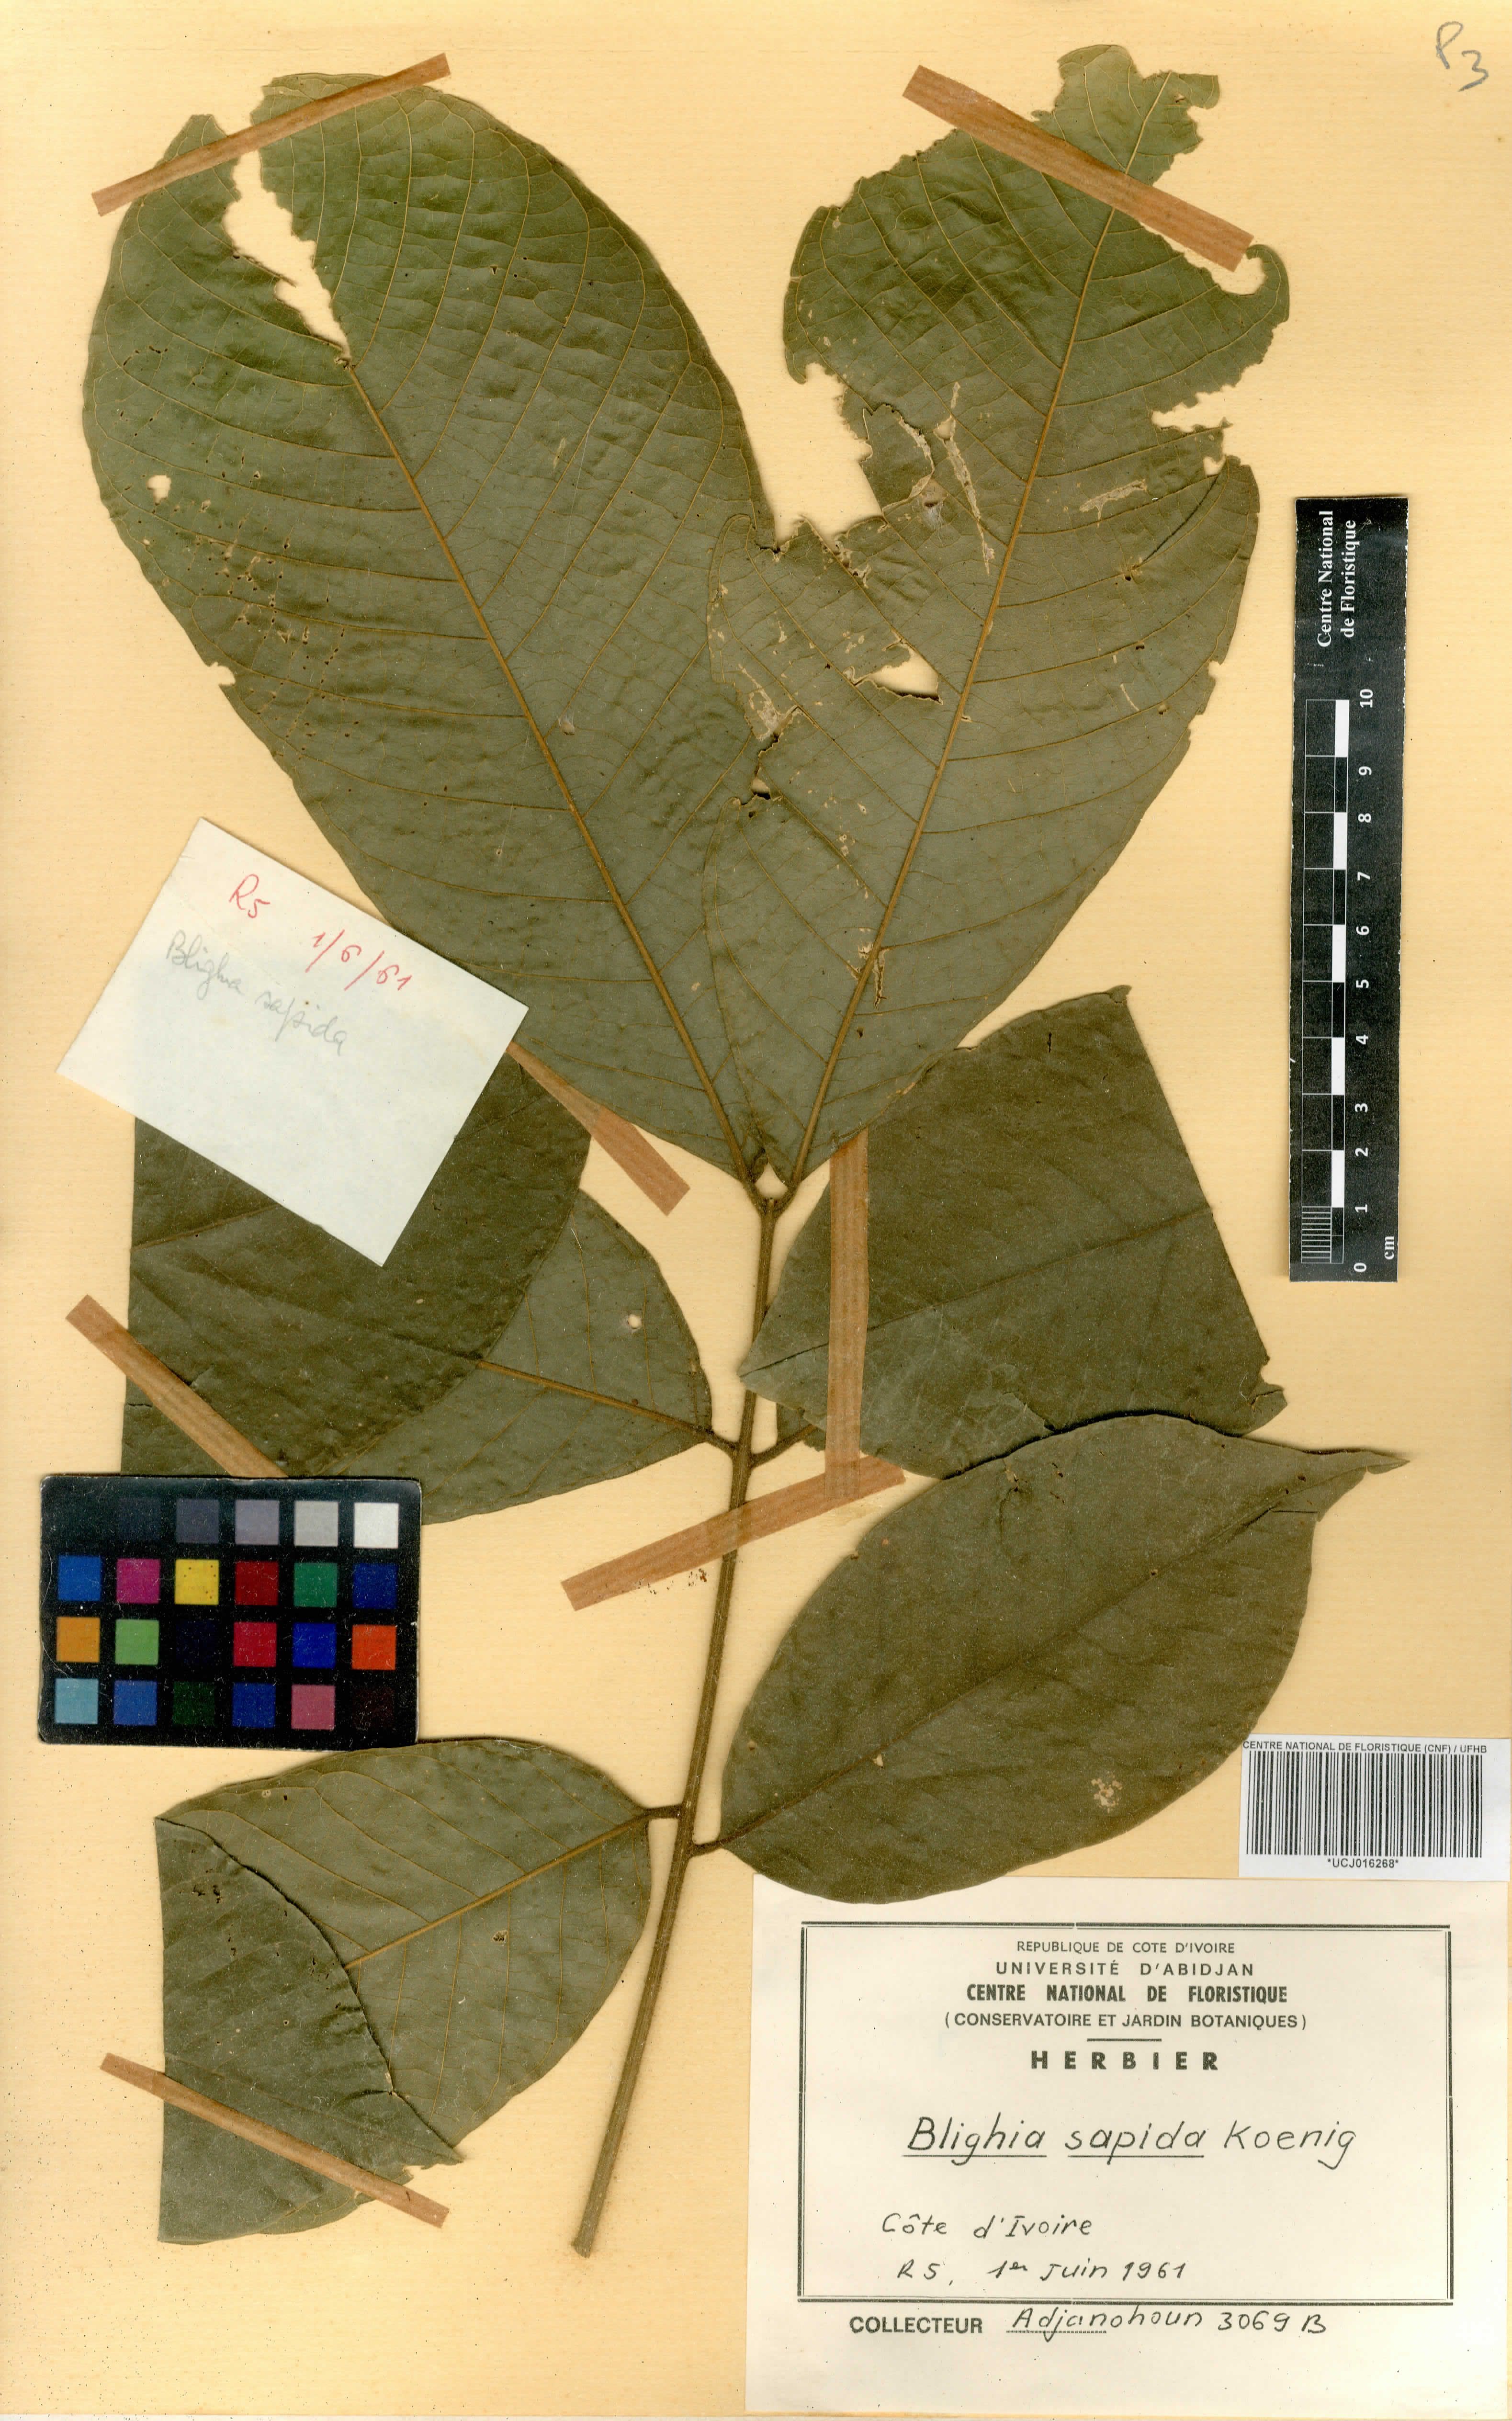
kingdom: Plantae
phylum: Tracheophyta
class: Magnoliopsida
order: Sapindales
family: Sapindaceae
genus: Blighia
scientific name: Blighia sapida
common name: Akee
